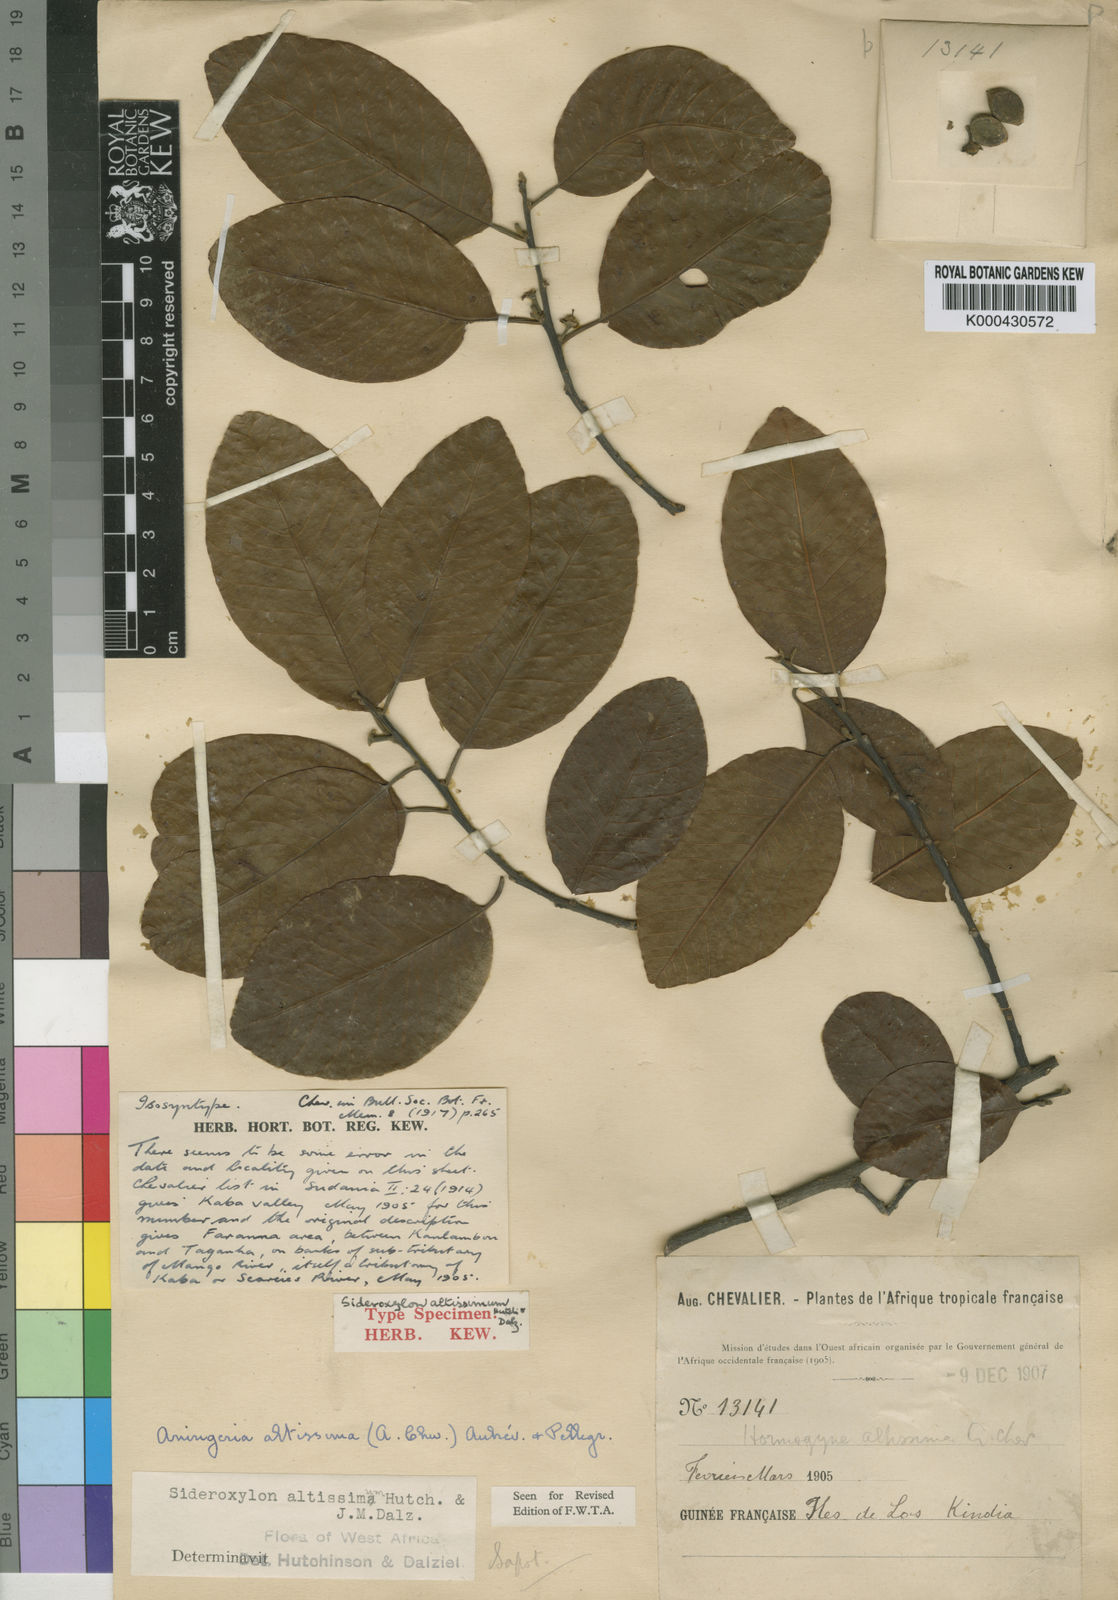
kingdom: Plantae
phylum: Tracheophyta
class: Magnoliopsida
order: Ericales
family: Sapotaceae
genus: Aningeria
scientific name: Aningeria altissima
